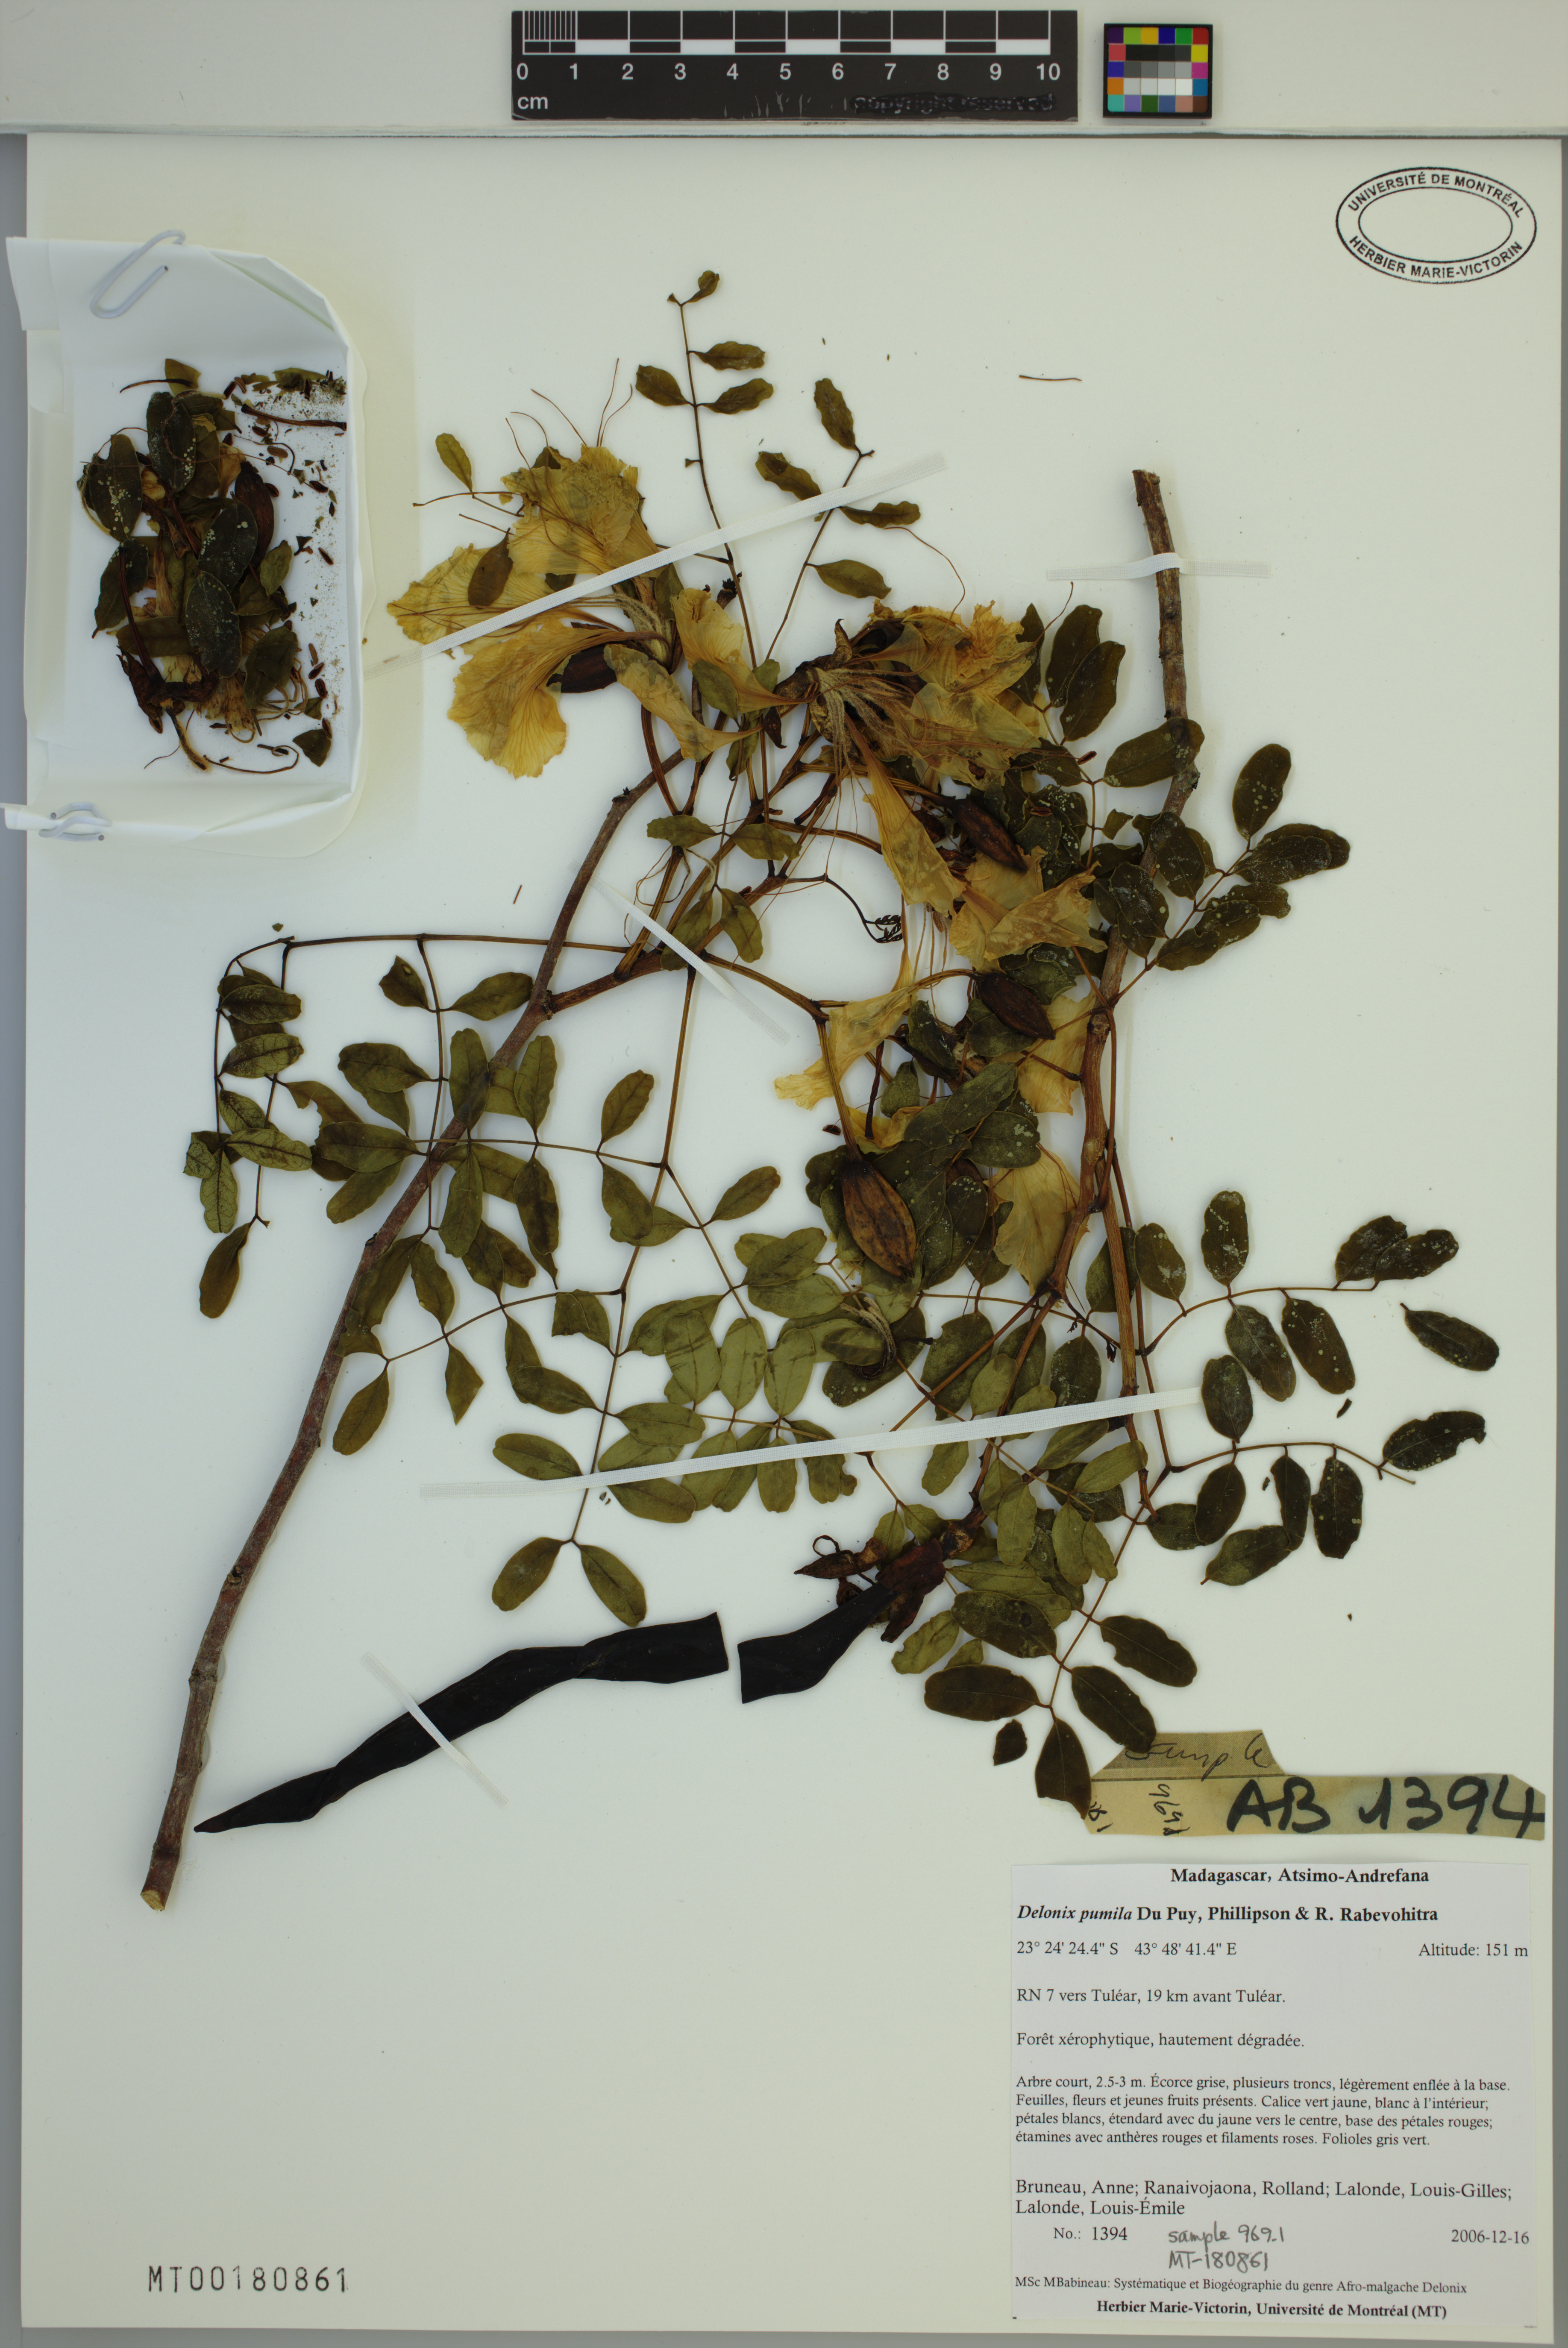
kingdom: Plantae
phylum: Tracheophyta
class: Magnoliopsida
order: Fabales
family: Fabaceae
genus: Delonix
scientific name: Delonix pumila
